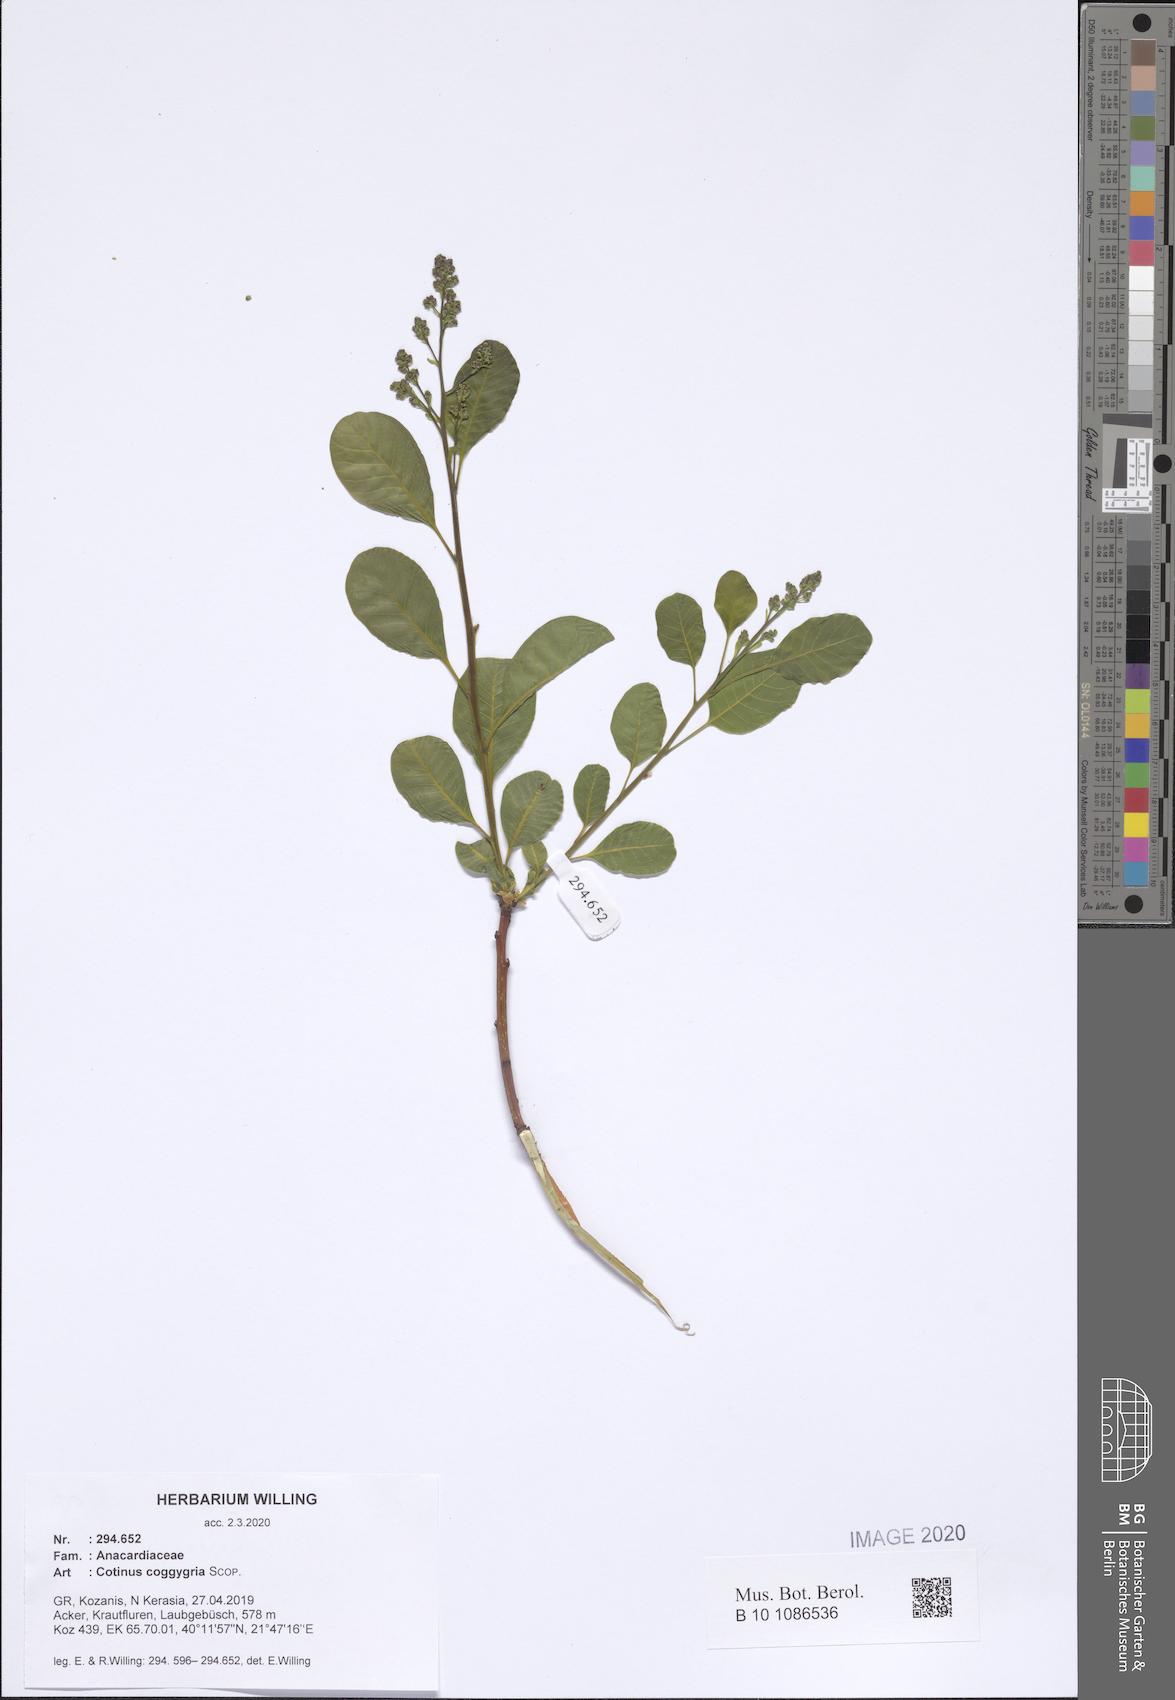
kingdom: Plantae
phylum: Tracheophyta
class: Magnoliopsida
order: Sapindales
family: Anacardiaceae
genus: Cotinus
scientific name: Cotinus coggygria
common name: Smoke-tree
